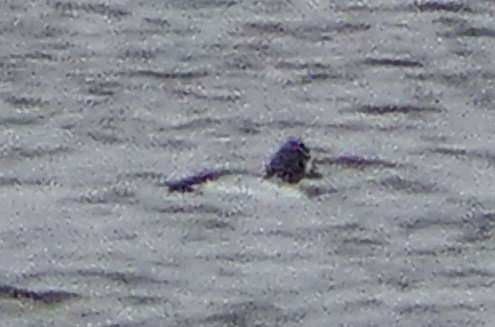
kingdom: Animalia
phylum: Chordata
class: Aves
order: Anseriformes
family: Anatidae
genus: Bucephala
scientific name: Bucephala clangula
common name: Hvinand
